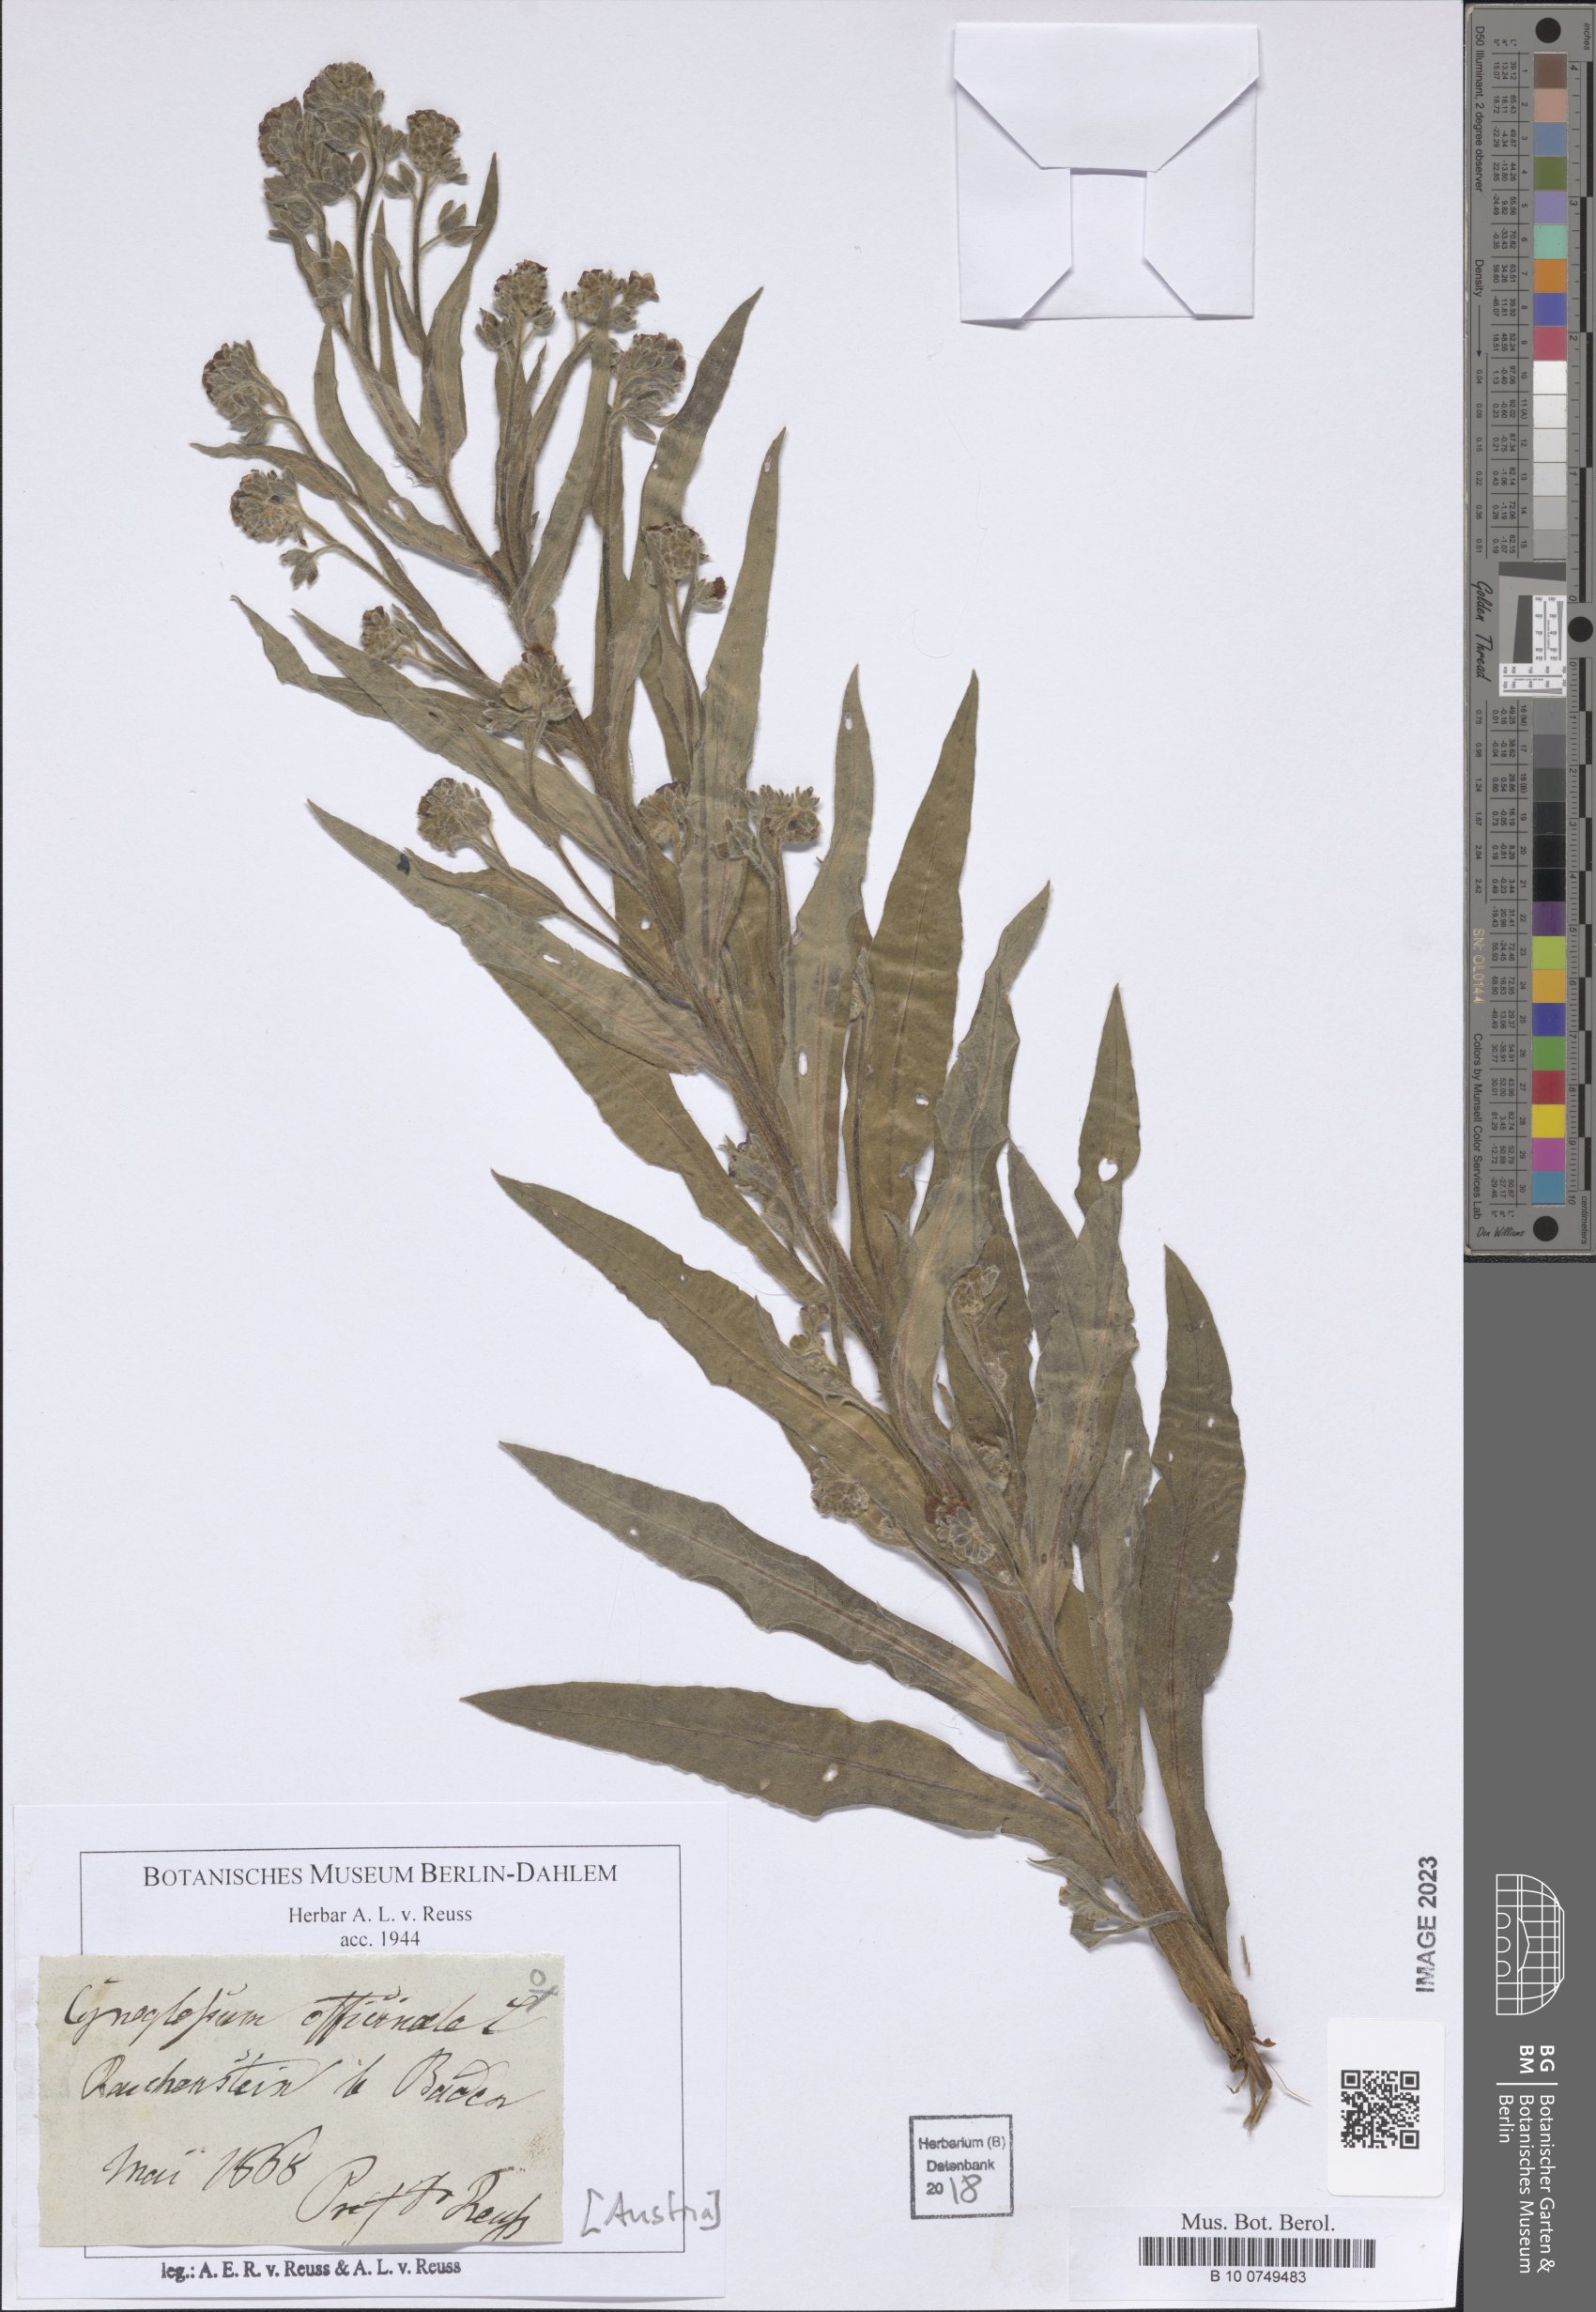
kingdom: Plantae
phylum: Tracheophyta
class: Magnoliopsida
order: Boraginales
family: Boraginaceae
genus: Cynoglossum
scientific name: Cynoglossum officinale
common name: Hound's-tongue
